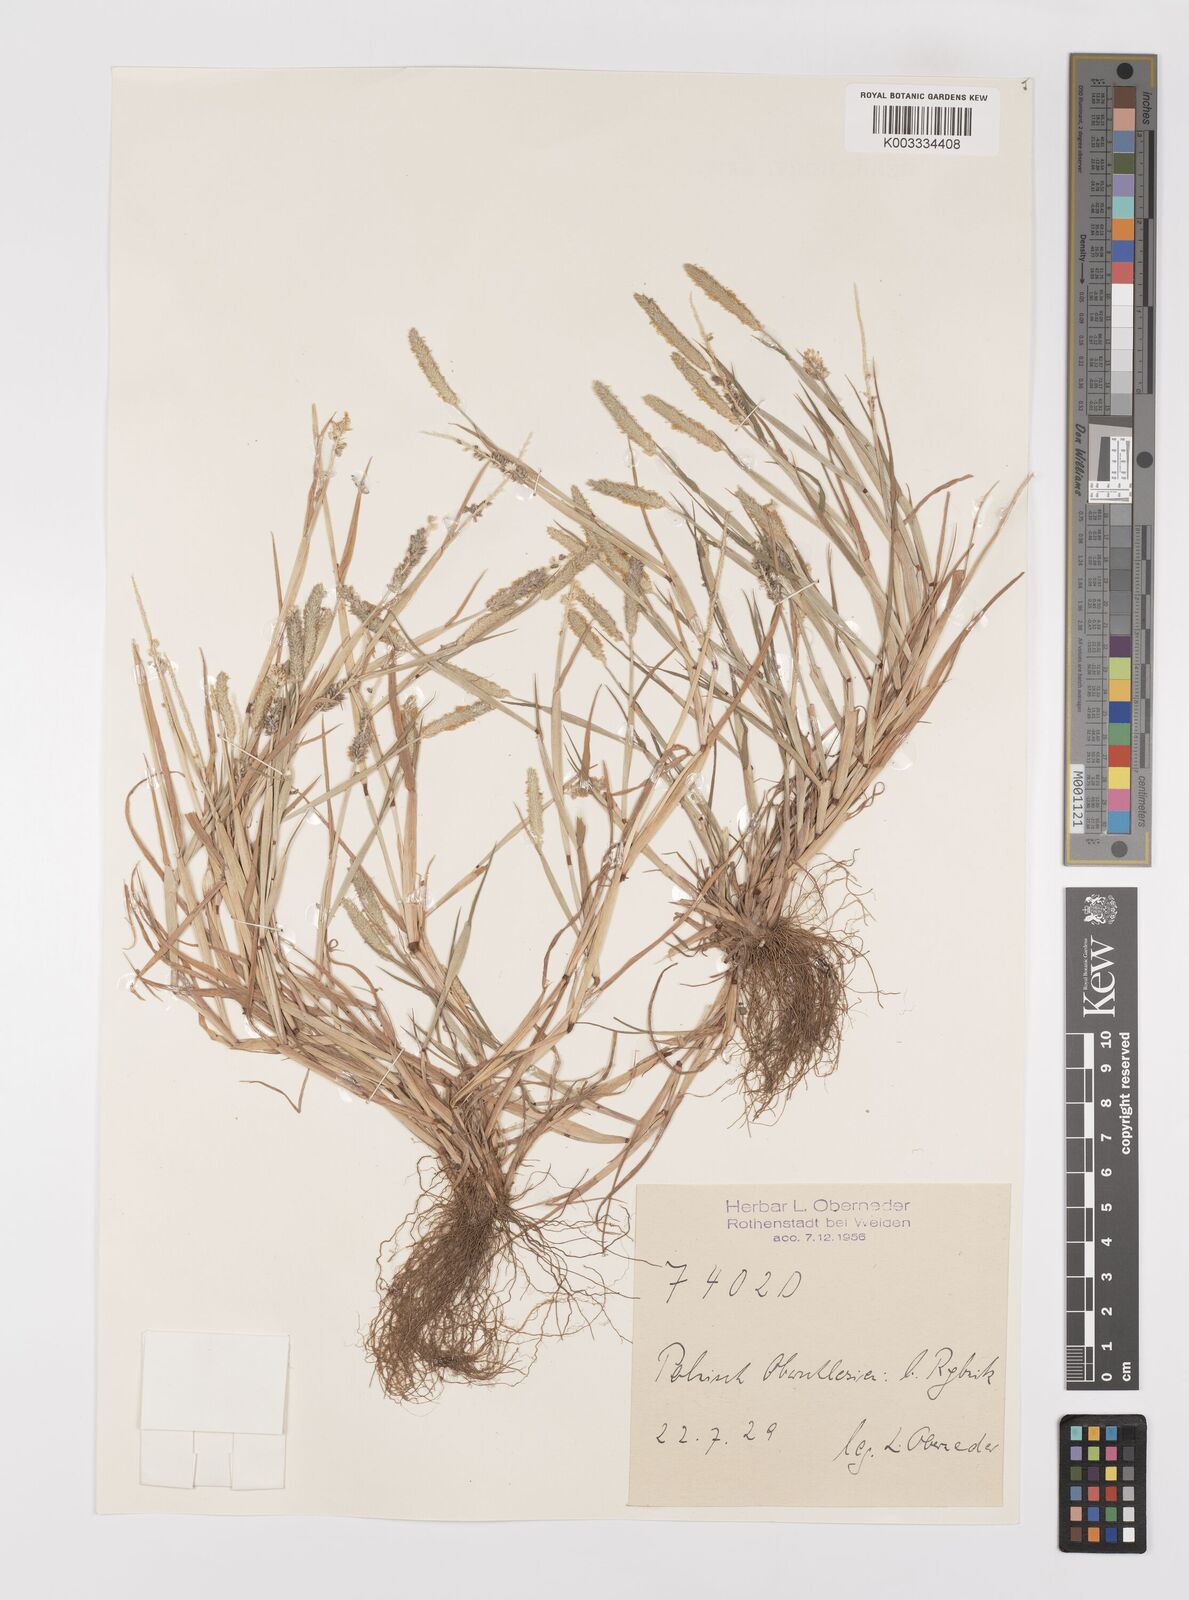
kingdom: Plantae
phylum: Tracheophyta
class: Liliopsida
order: Poales
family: Poaceae
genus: Alopecurus
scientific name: Alopecurus aequalis
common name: Orange foxtail
